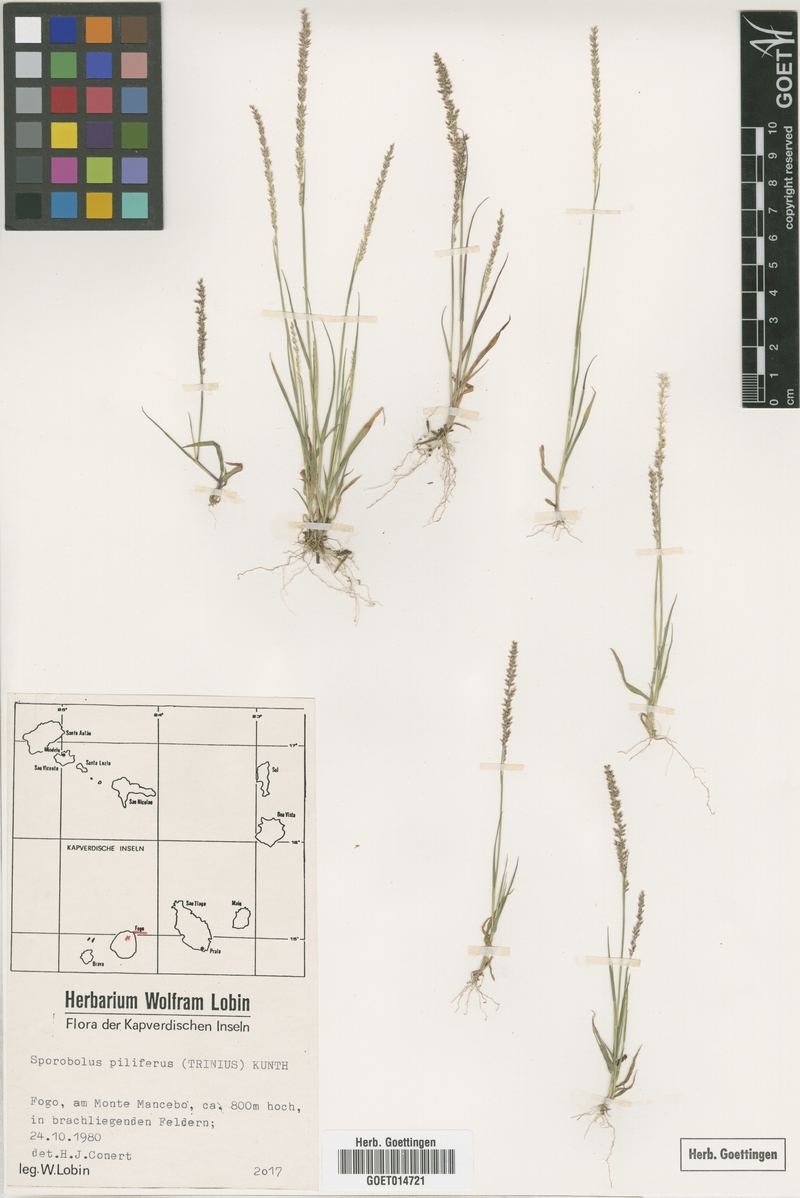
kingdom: Plantae
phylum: Tracheophyta
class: Liliopsida
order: Poales
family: Poaceae
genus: Sporobolus
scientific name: Sporobolus pilifer
